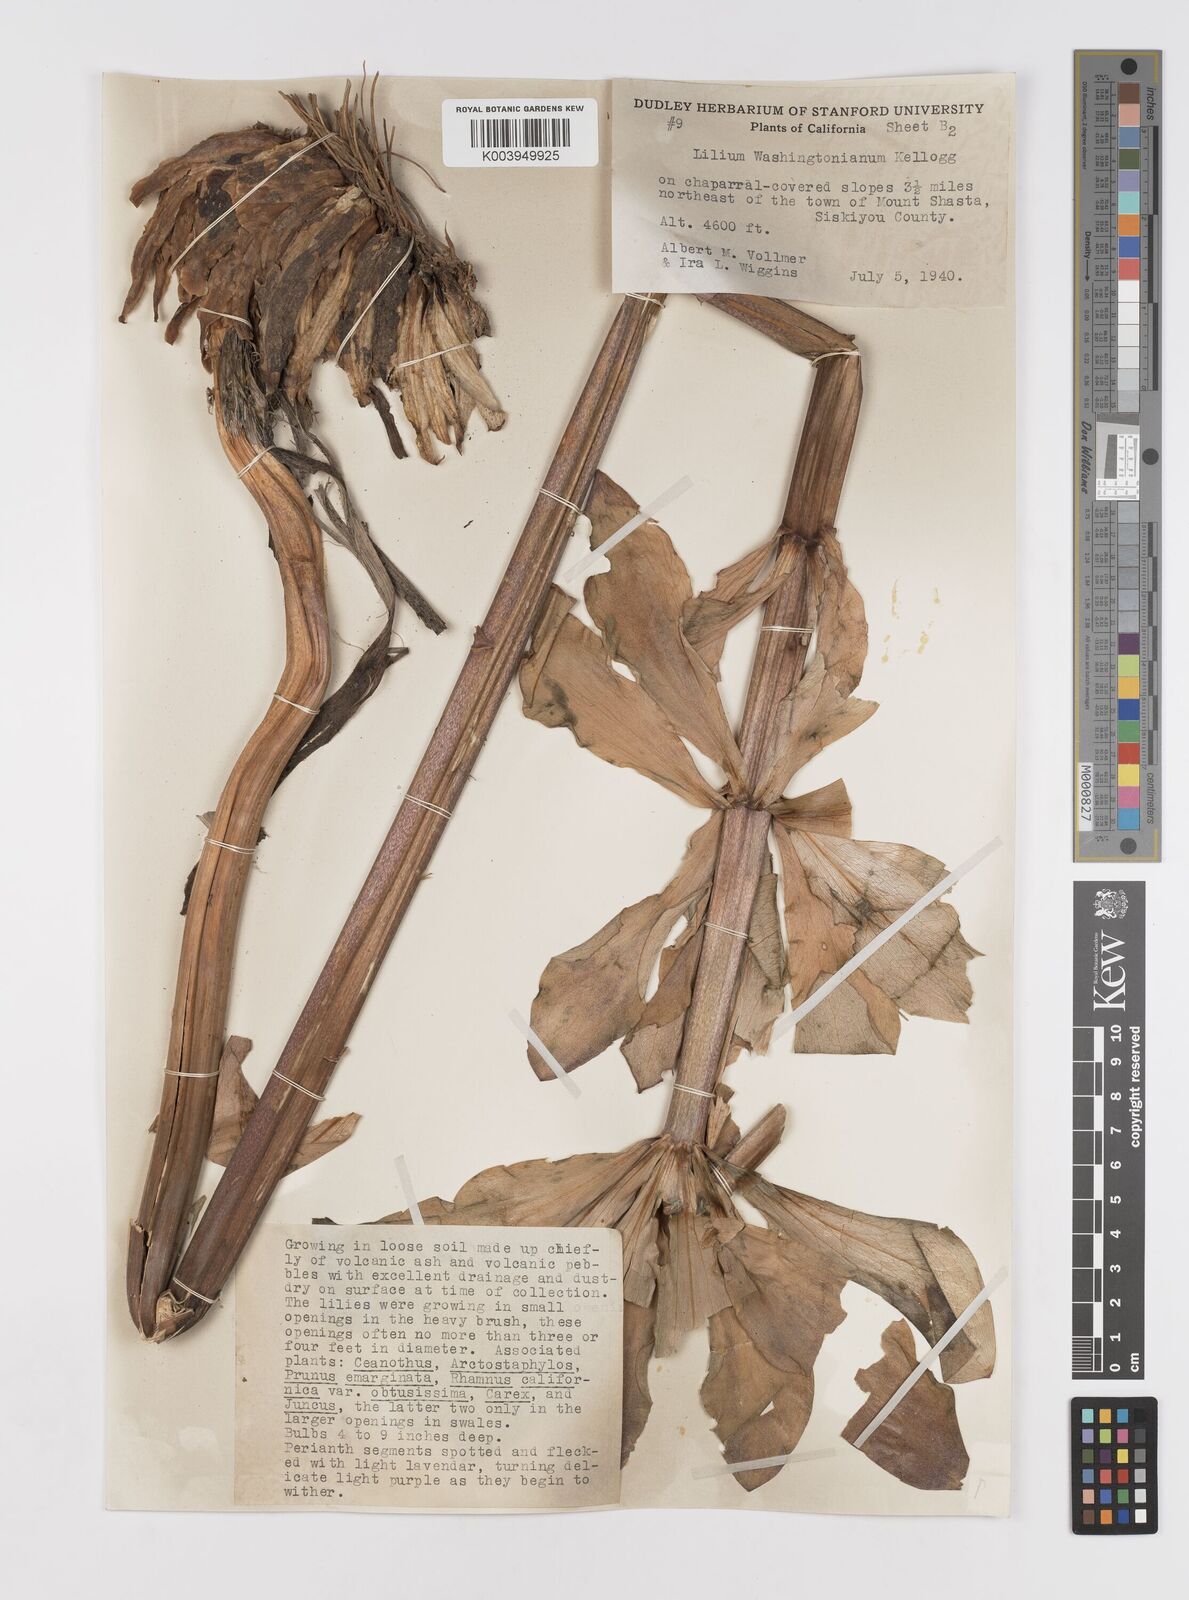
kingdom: Plantae
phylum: Tracheophyta
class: Liliopsida
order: Liliales
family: Liliaceae
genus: Lilium
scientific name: Lilium washingtonianum
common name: Washington lily
